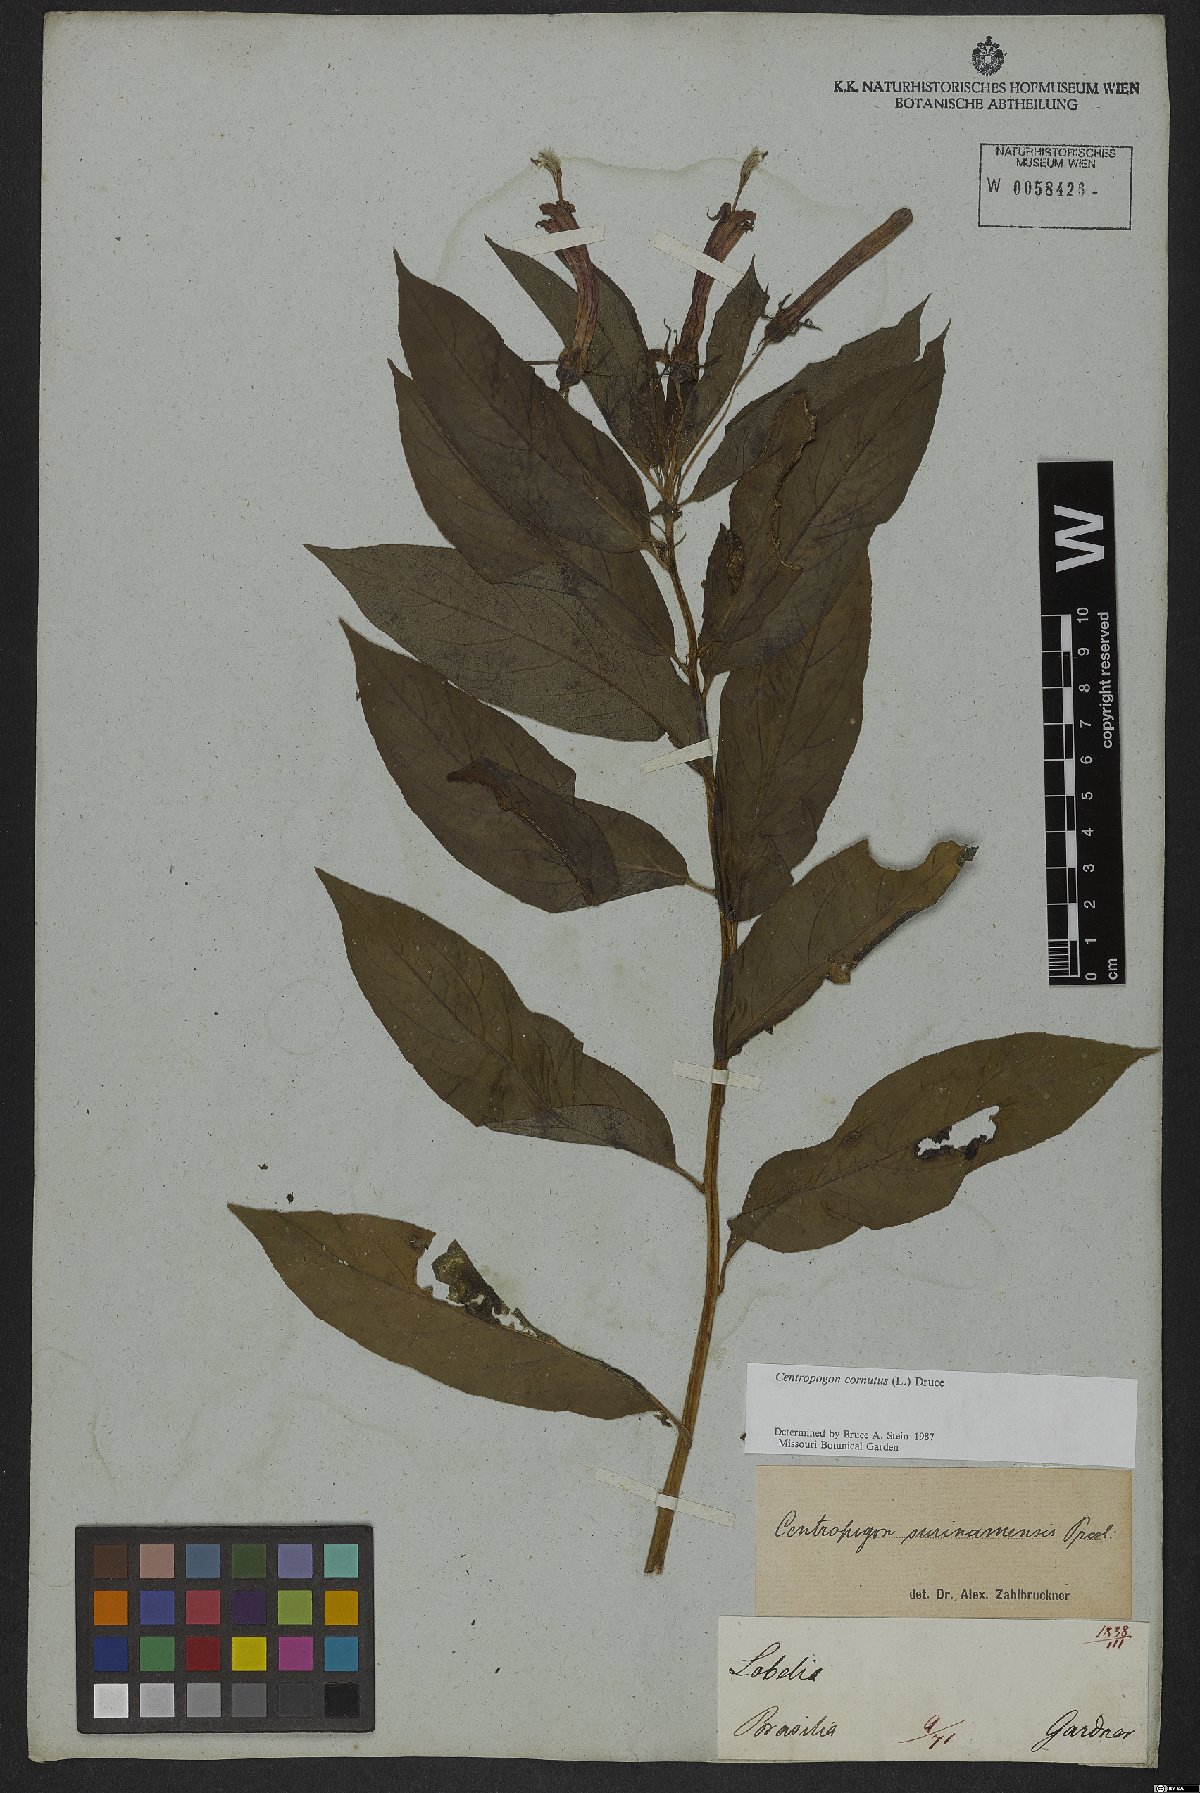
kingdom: Plantae
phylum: Tracheophyta
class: Magnoliopsida
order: Asterales
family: Campanulaceae
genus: Centropogon
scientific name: Centropogon cornutus
